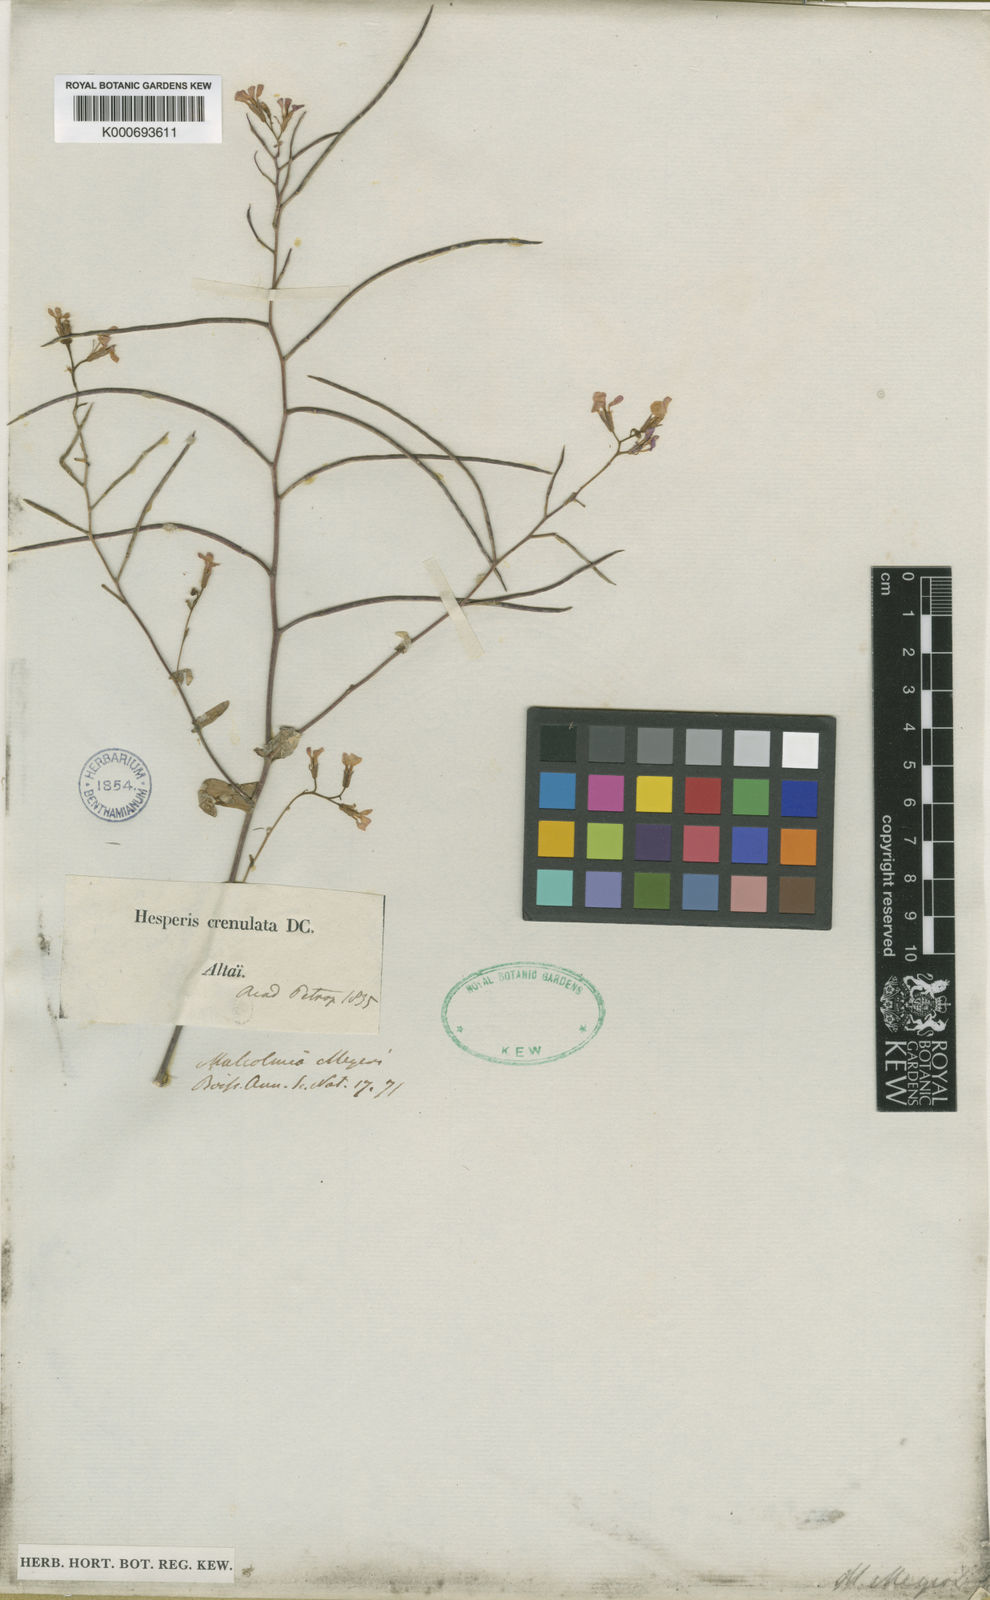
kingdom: Plantae
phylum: Tracheophyta
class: Magnoliopsida
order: Brassicales
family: Brassicaceae
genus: Zuvanda
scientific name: Zuvanda crenulata
